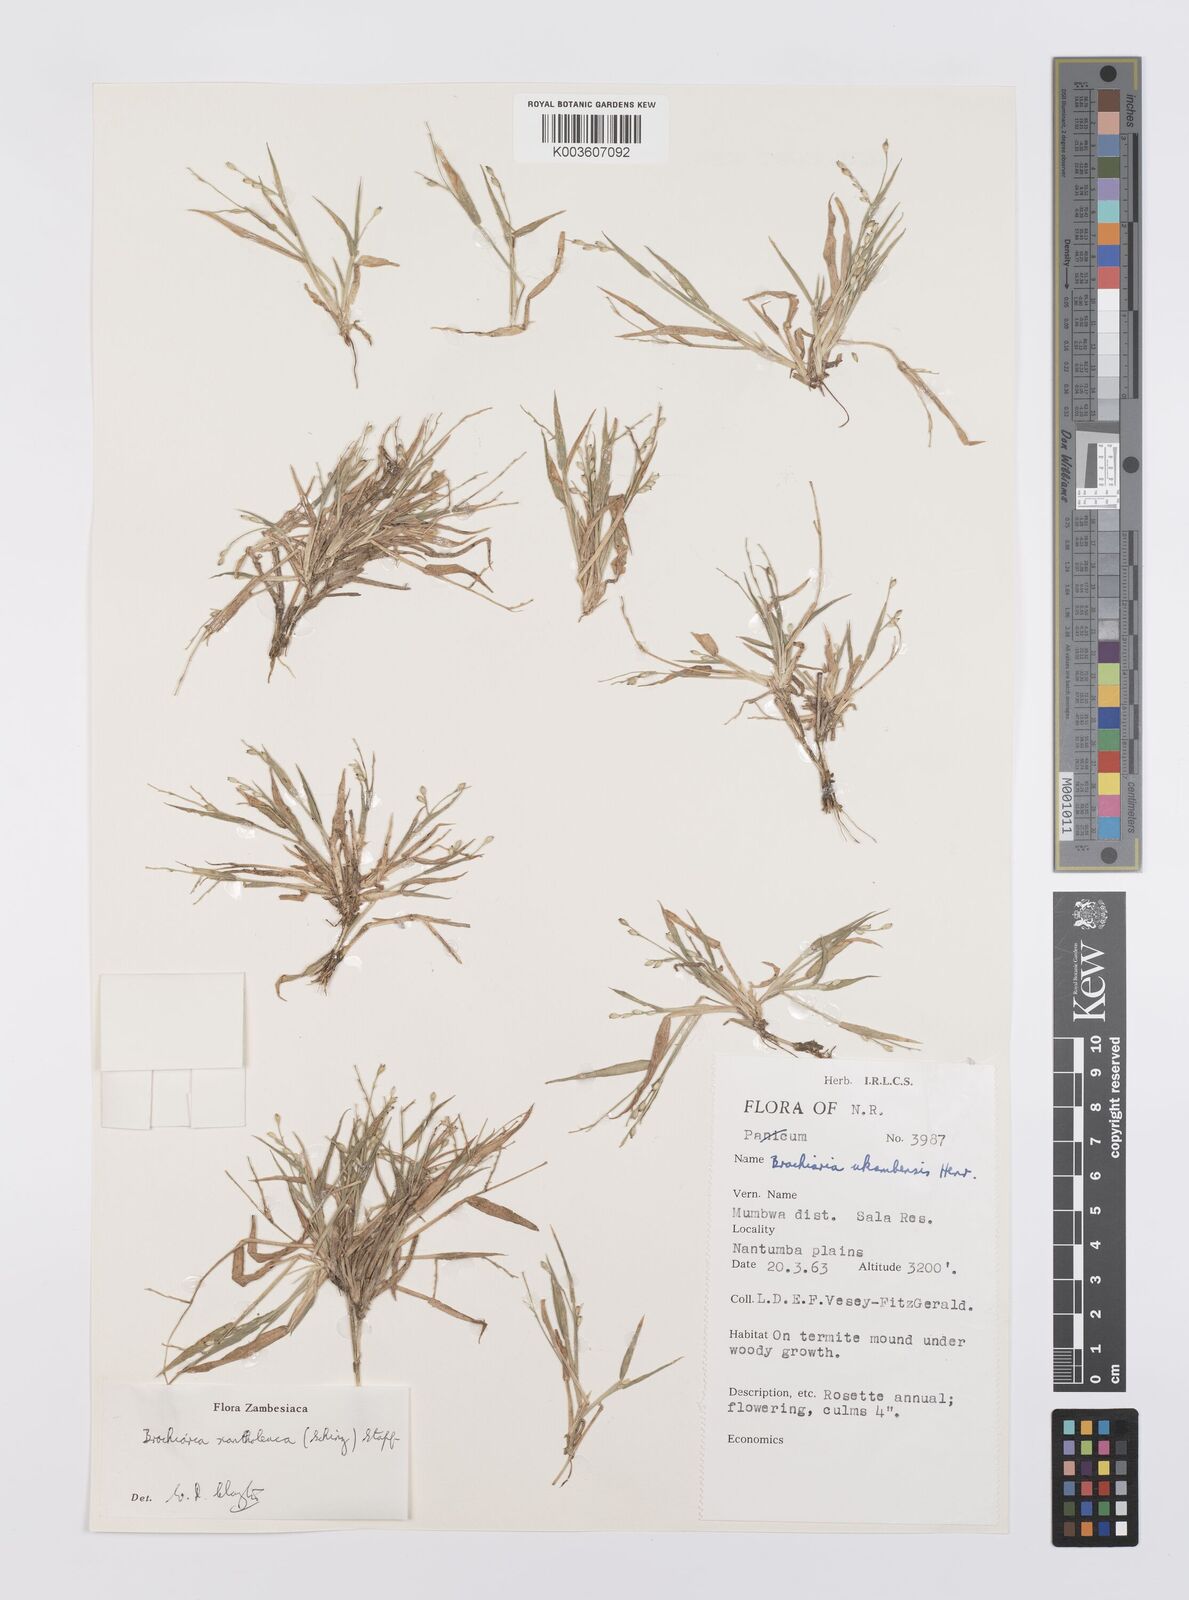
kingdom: Plantae
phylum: Tracheophyta
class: Liliopsida
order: Poales
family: Poaceae
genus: Urochloa
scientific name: Urochloa xantholeuca
